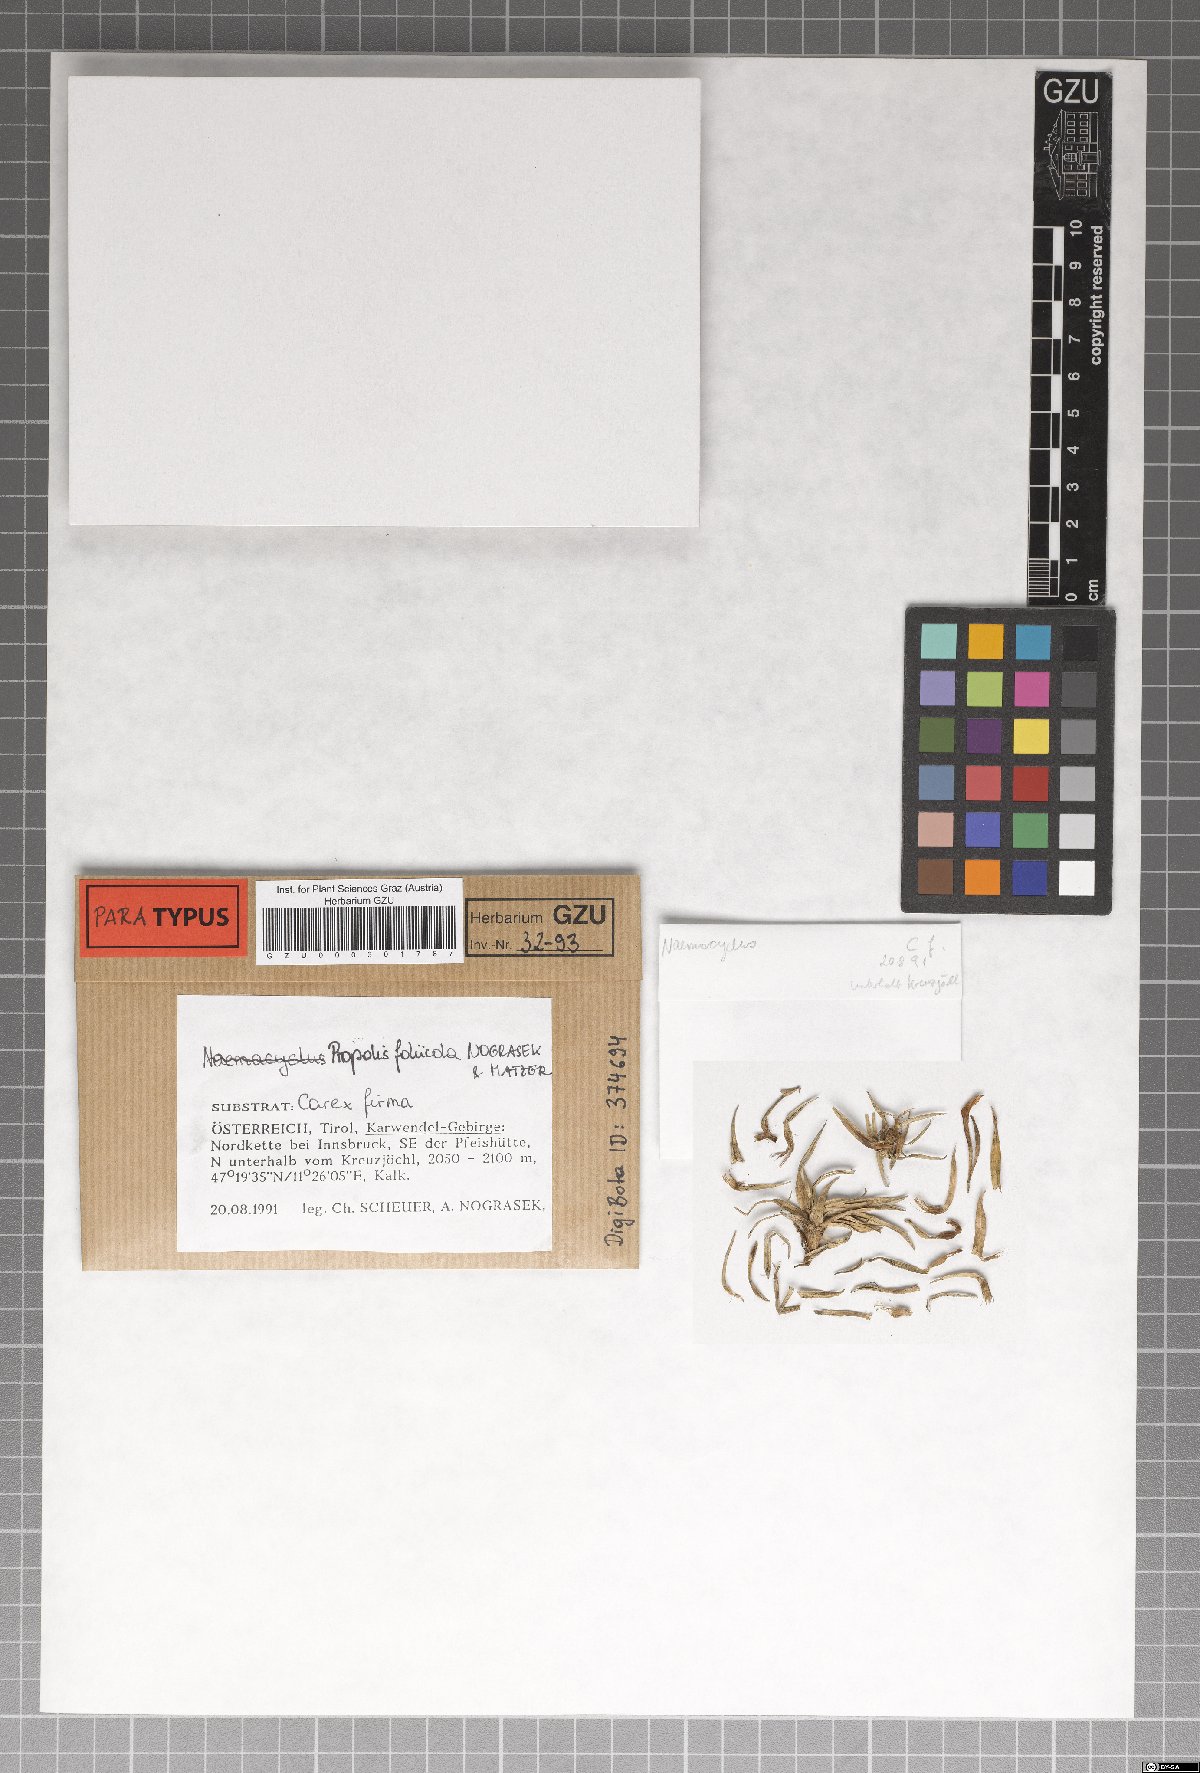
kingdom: Fungi
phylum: Ascomycota
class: Leotiomycetes
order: Chaetomellales
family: Marthamycetaceae
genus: Marthamyces
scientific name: Marthamyces foliicola
